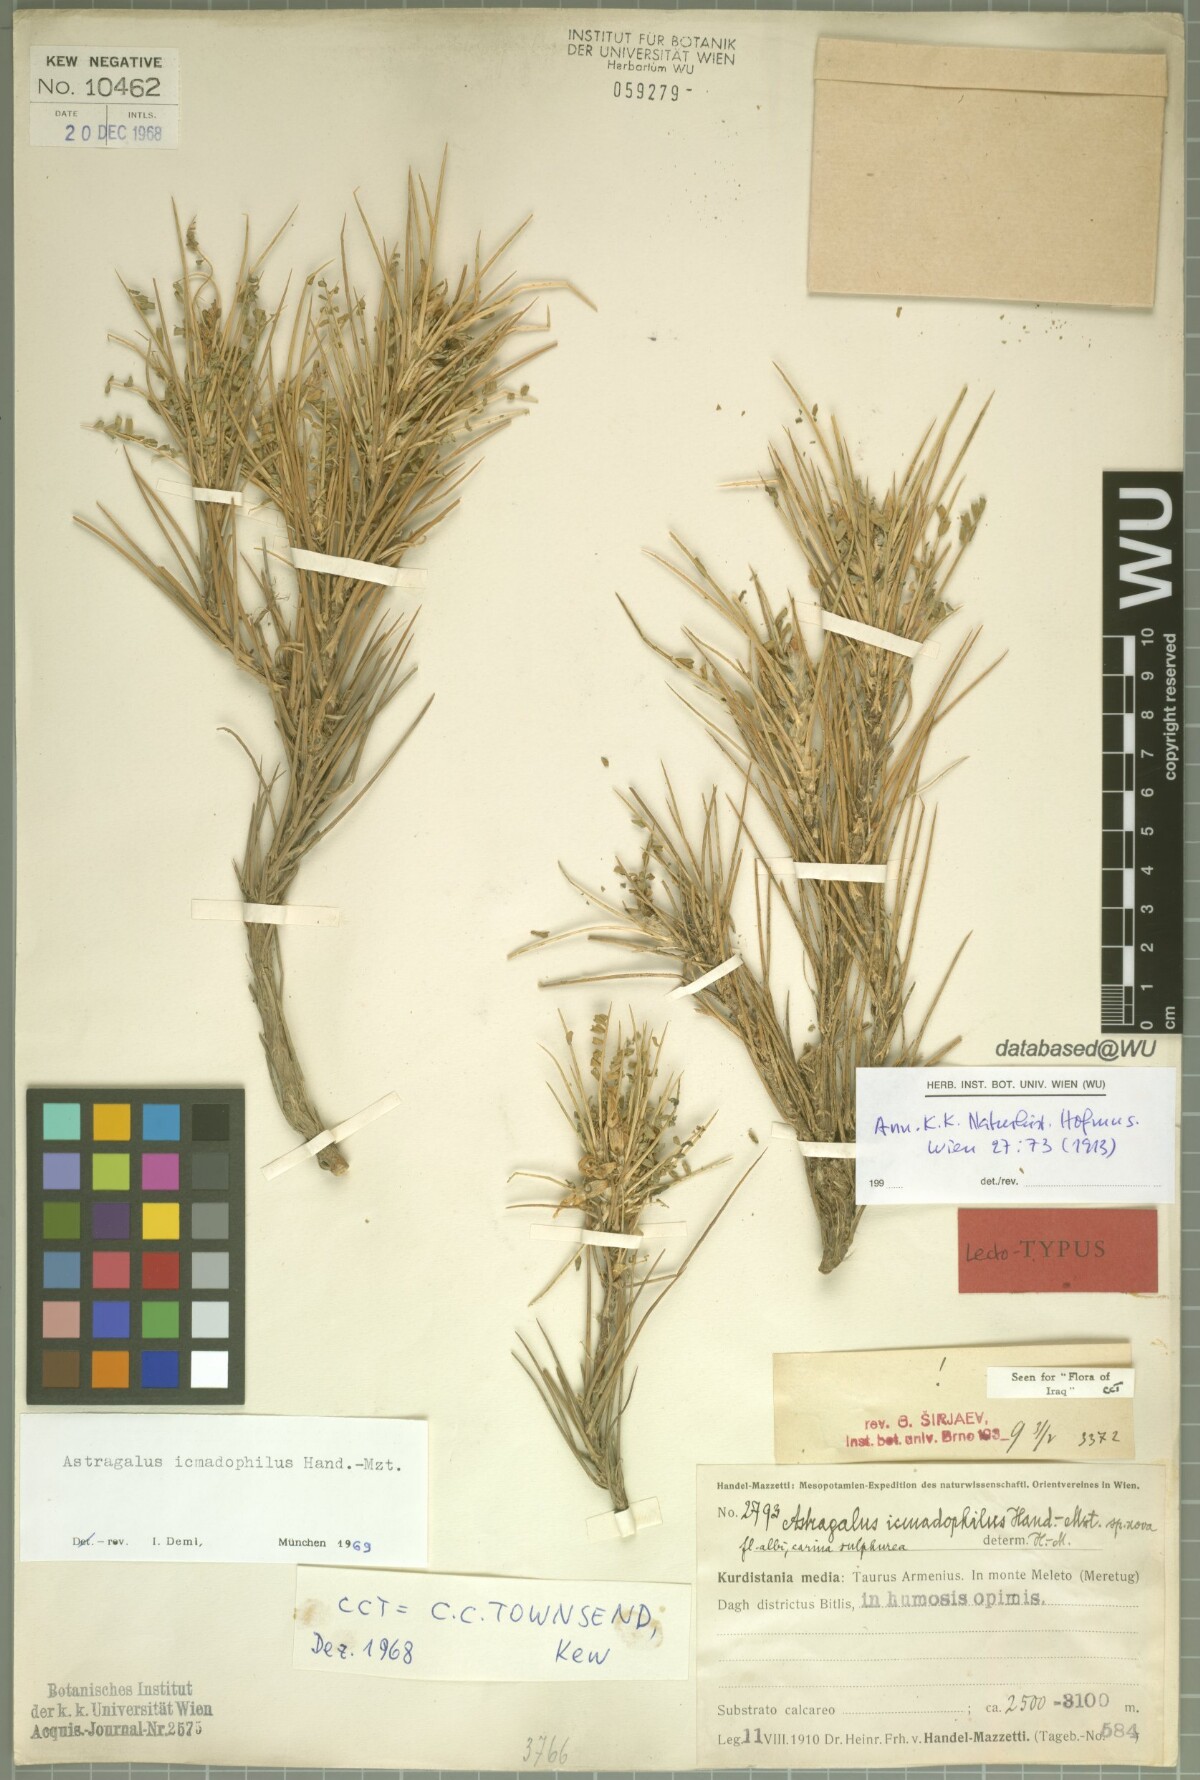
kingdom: Plantae
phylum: Tracheophyta
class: Magnoliopsida
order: Fabales
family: Fabaceae
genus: Astragalus
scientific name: Astragalus icmadophilus
